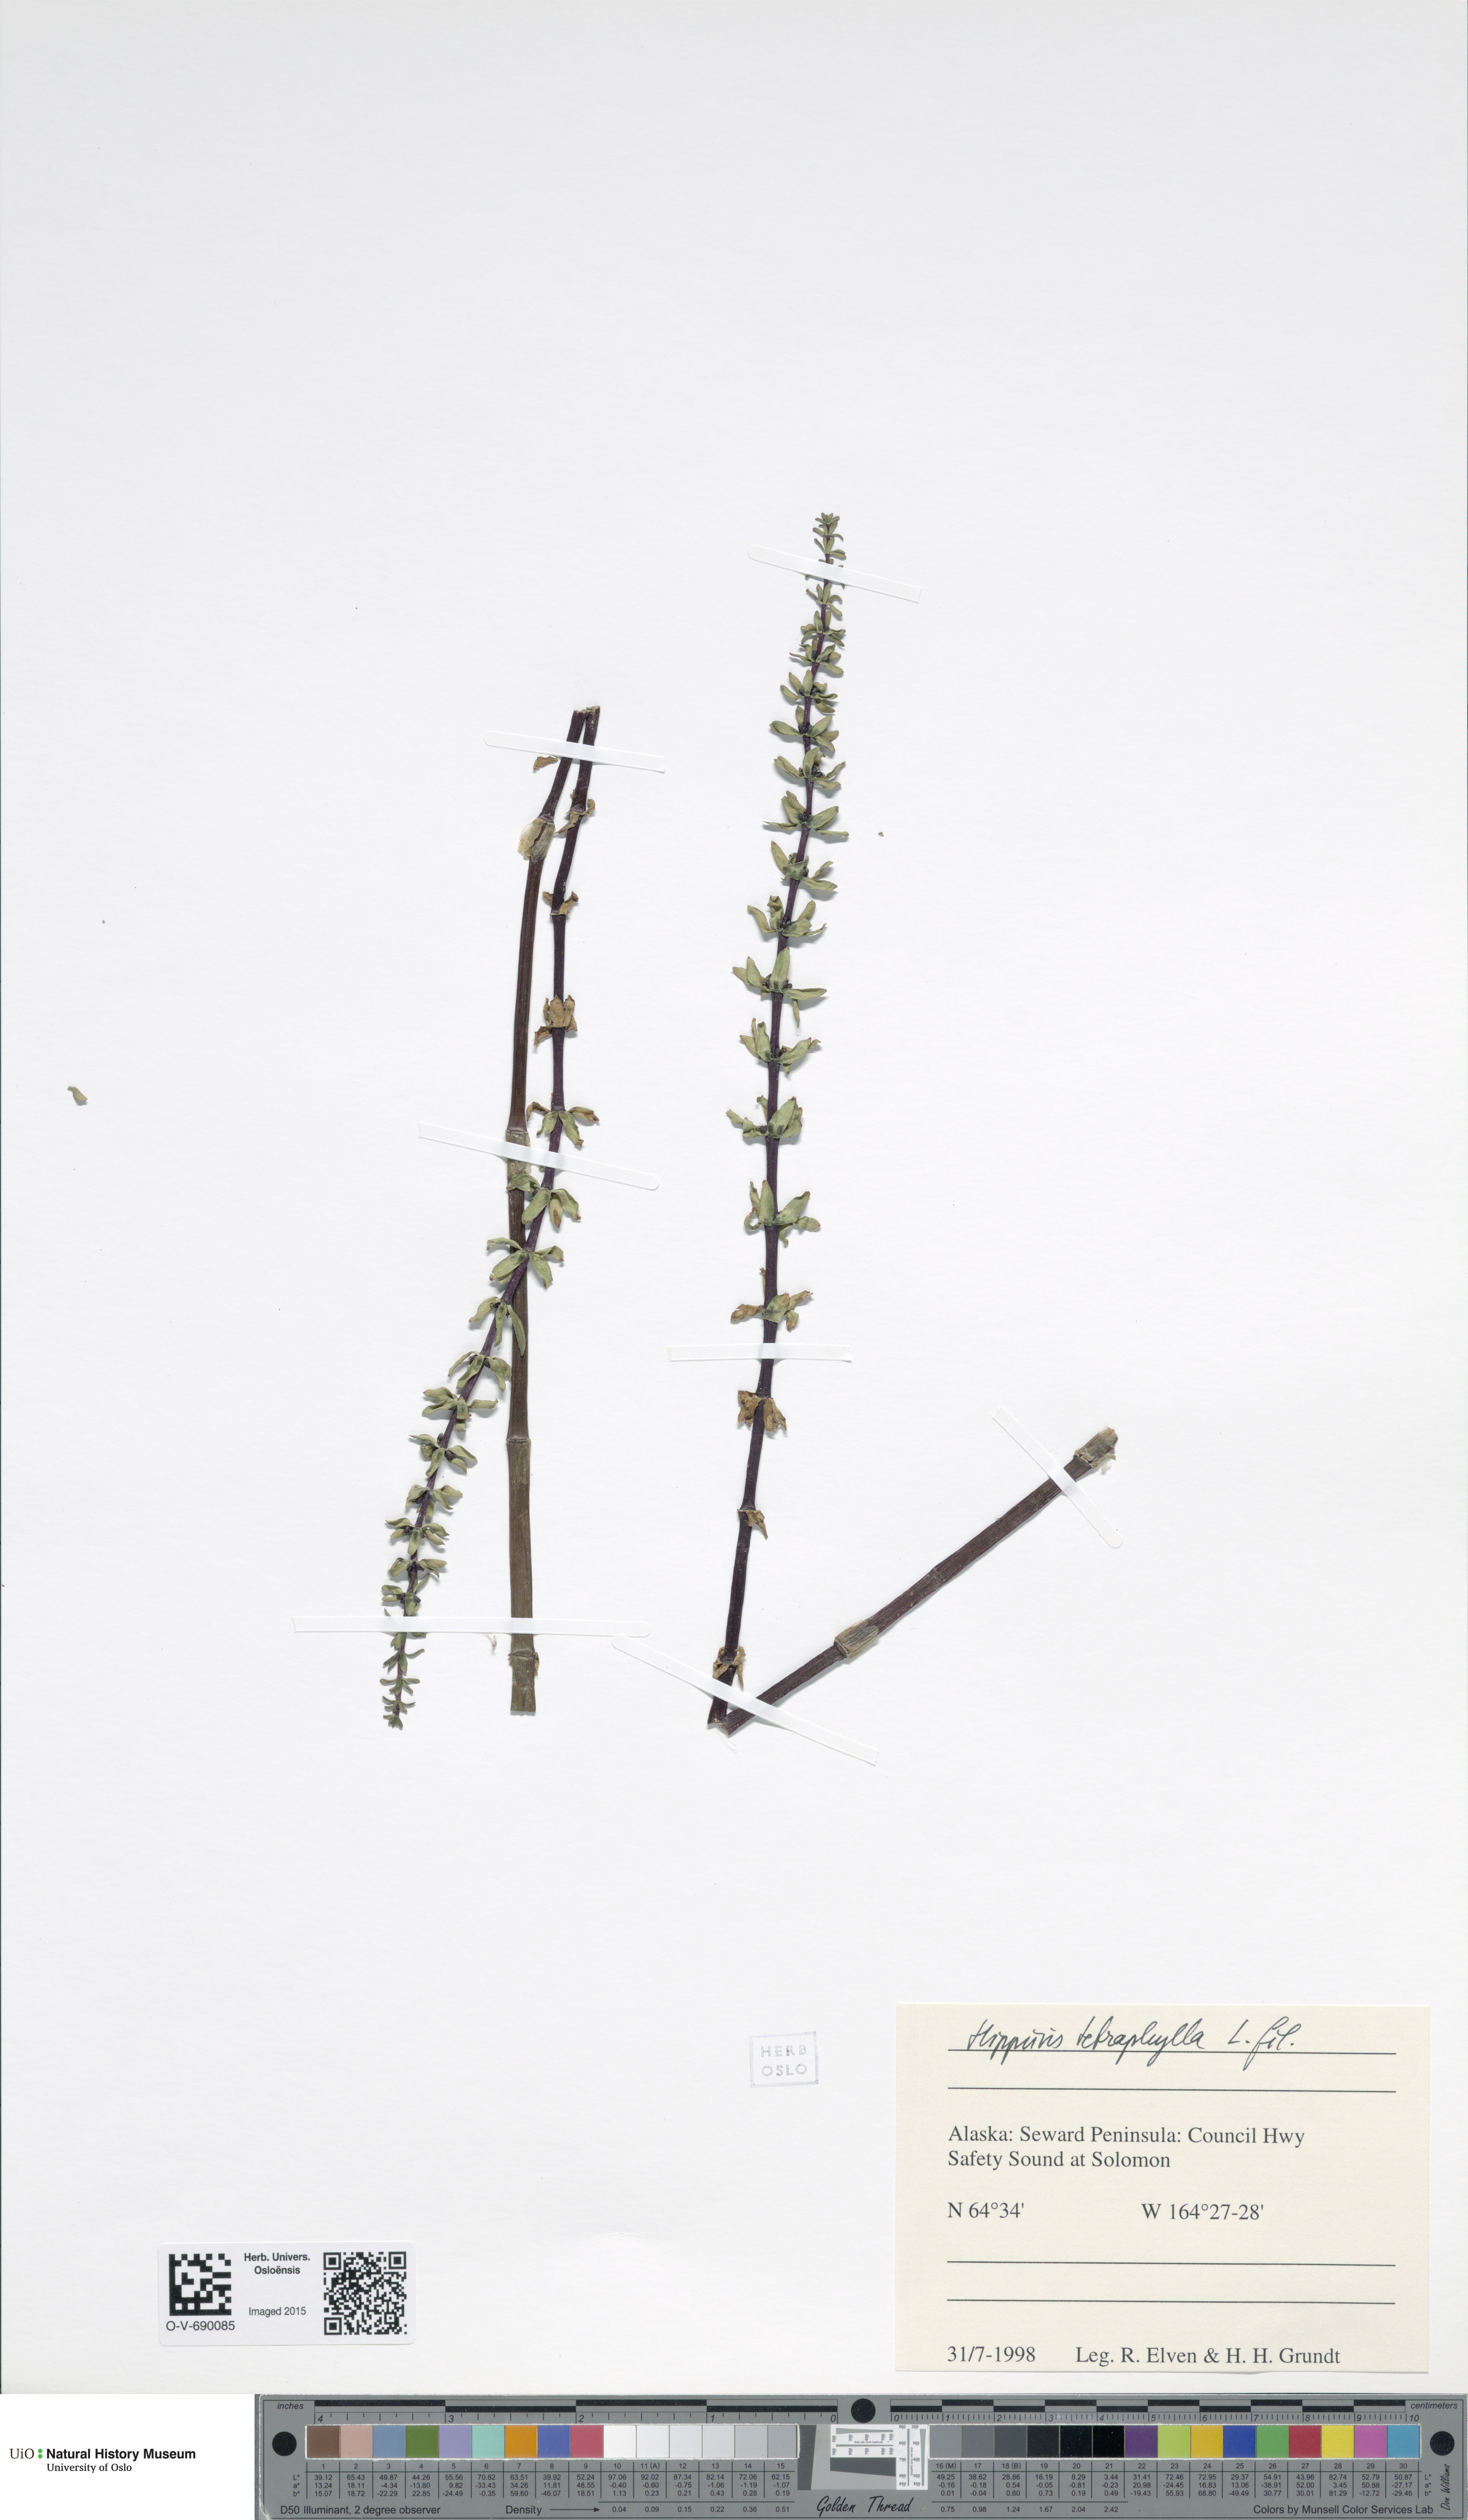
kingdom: Plantae
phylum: Tracheophyta
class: Magnoliopsida
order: Lamiales
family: Plantaginaceae
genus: Hippuris
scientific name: Hippuris tetraphylla
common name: Four-leaved mare's-tail
